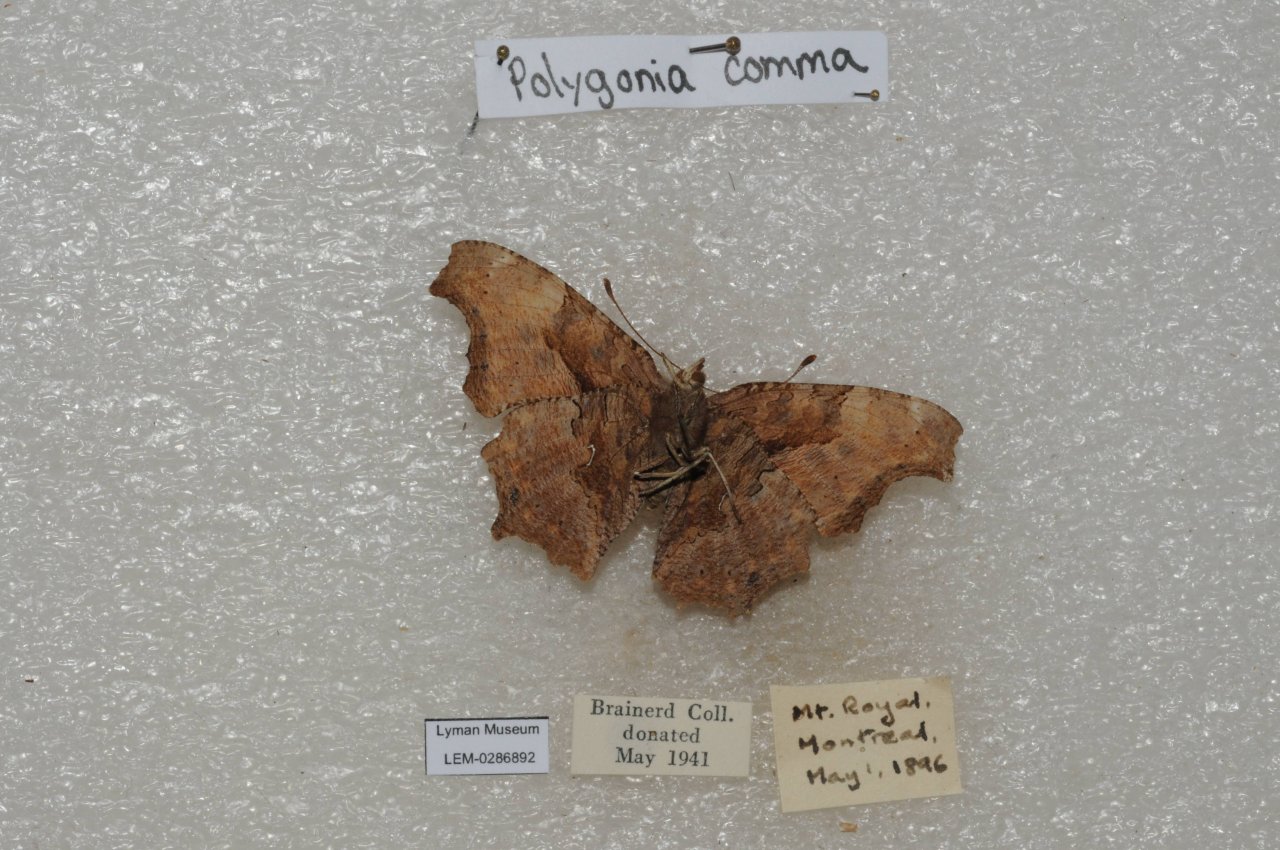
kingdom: Animalia
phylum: Arthropoda
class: Insecta
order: Lepidoptera
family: Nymphalidae
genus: Polygonia
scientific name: Polygonia comma
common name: Eastern Comma
